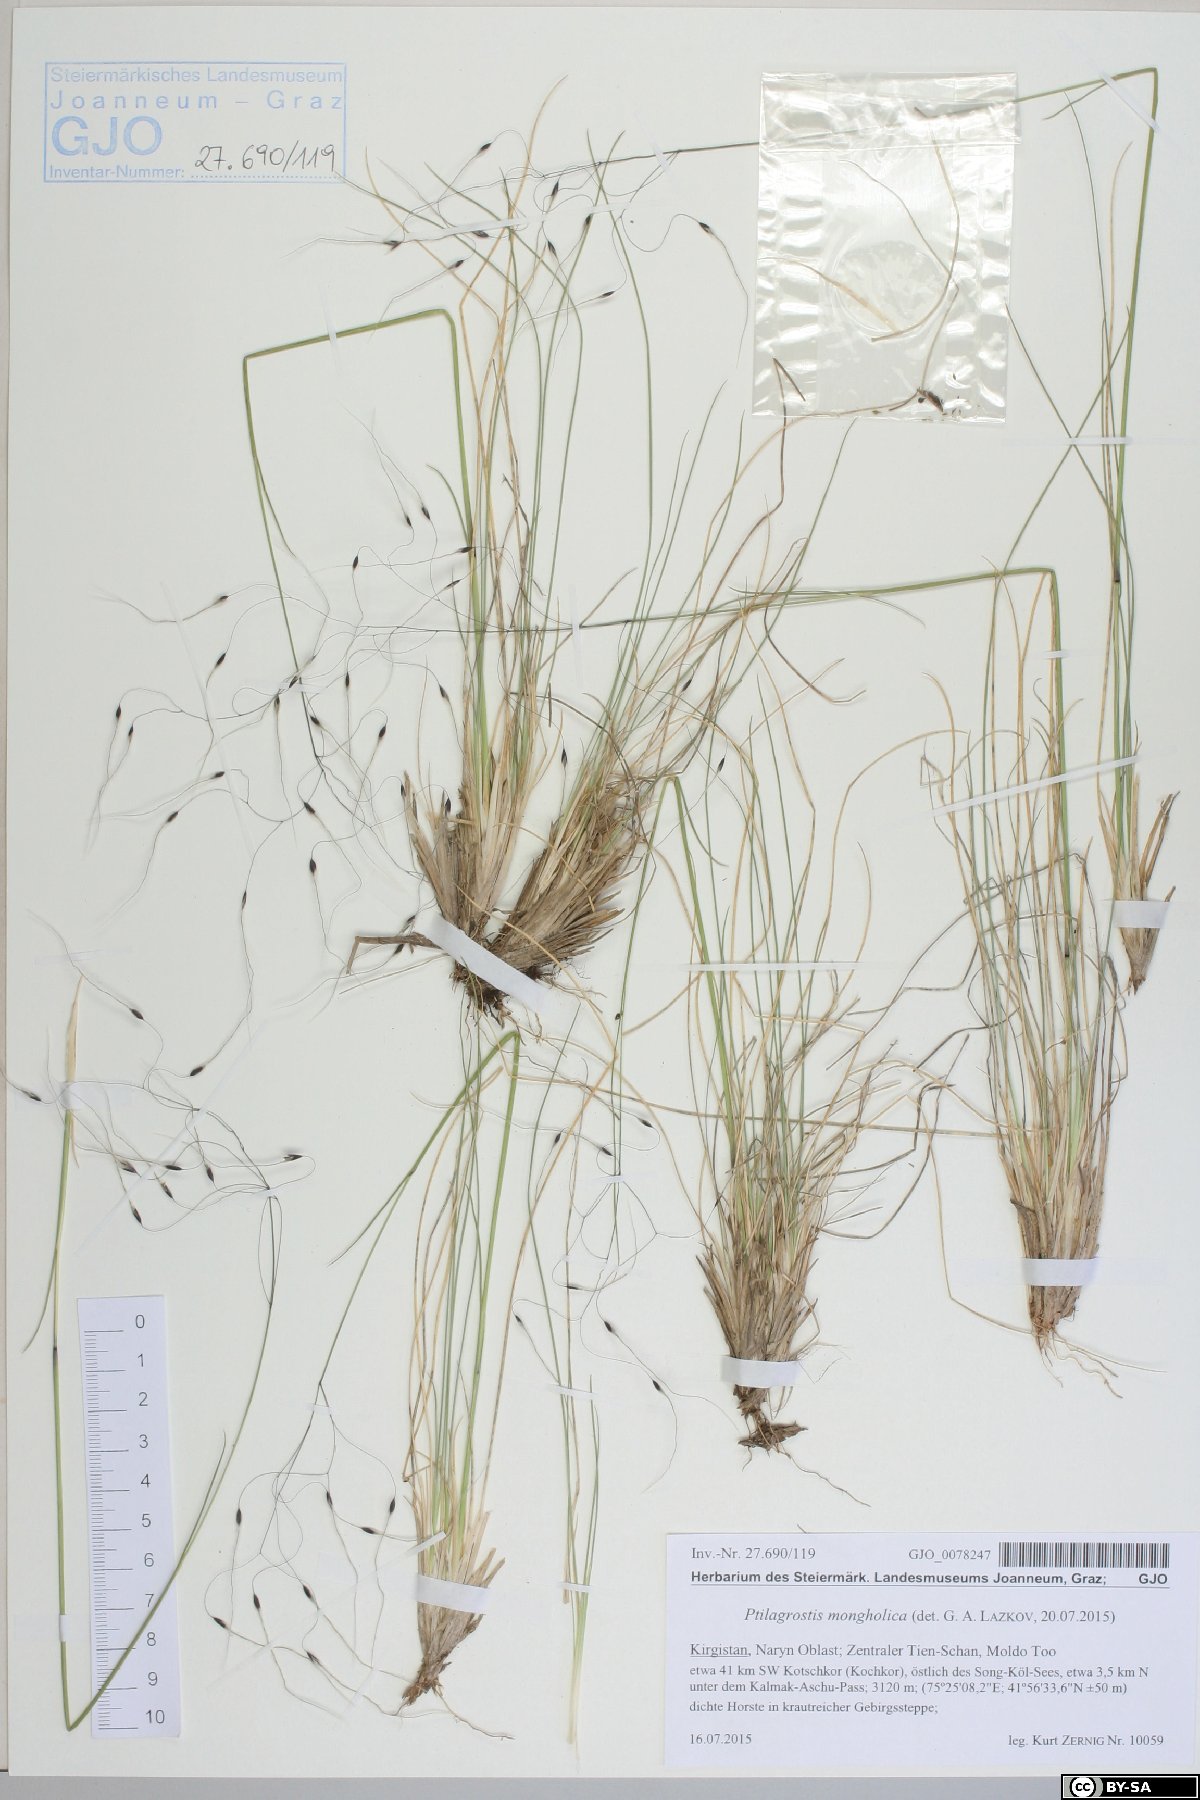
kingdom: Plantae
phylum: Tracheophyta
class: Liliopsida
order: Poales
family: Poaceae
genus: Ptilagrostis
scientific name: Ptilagrostis mongholica
